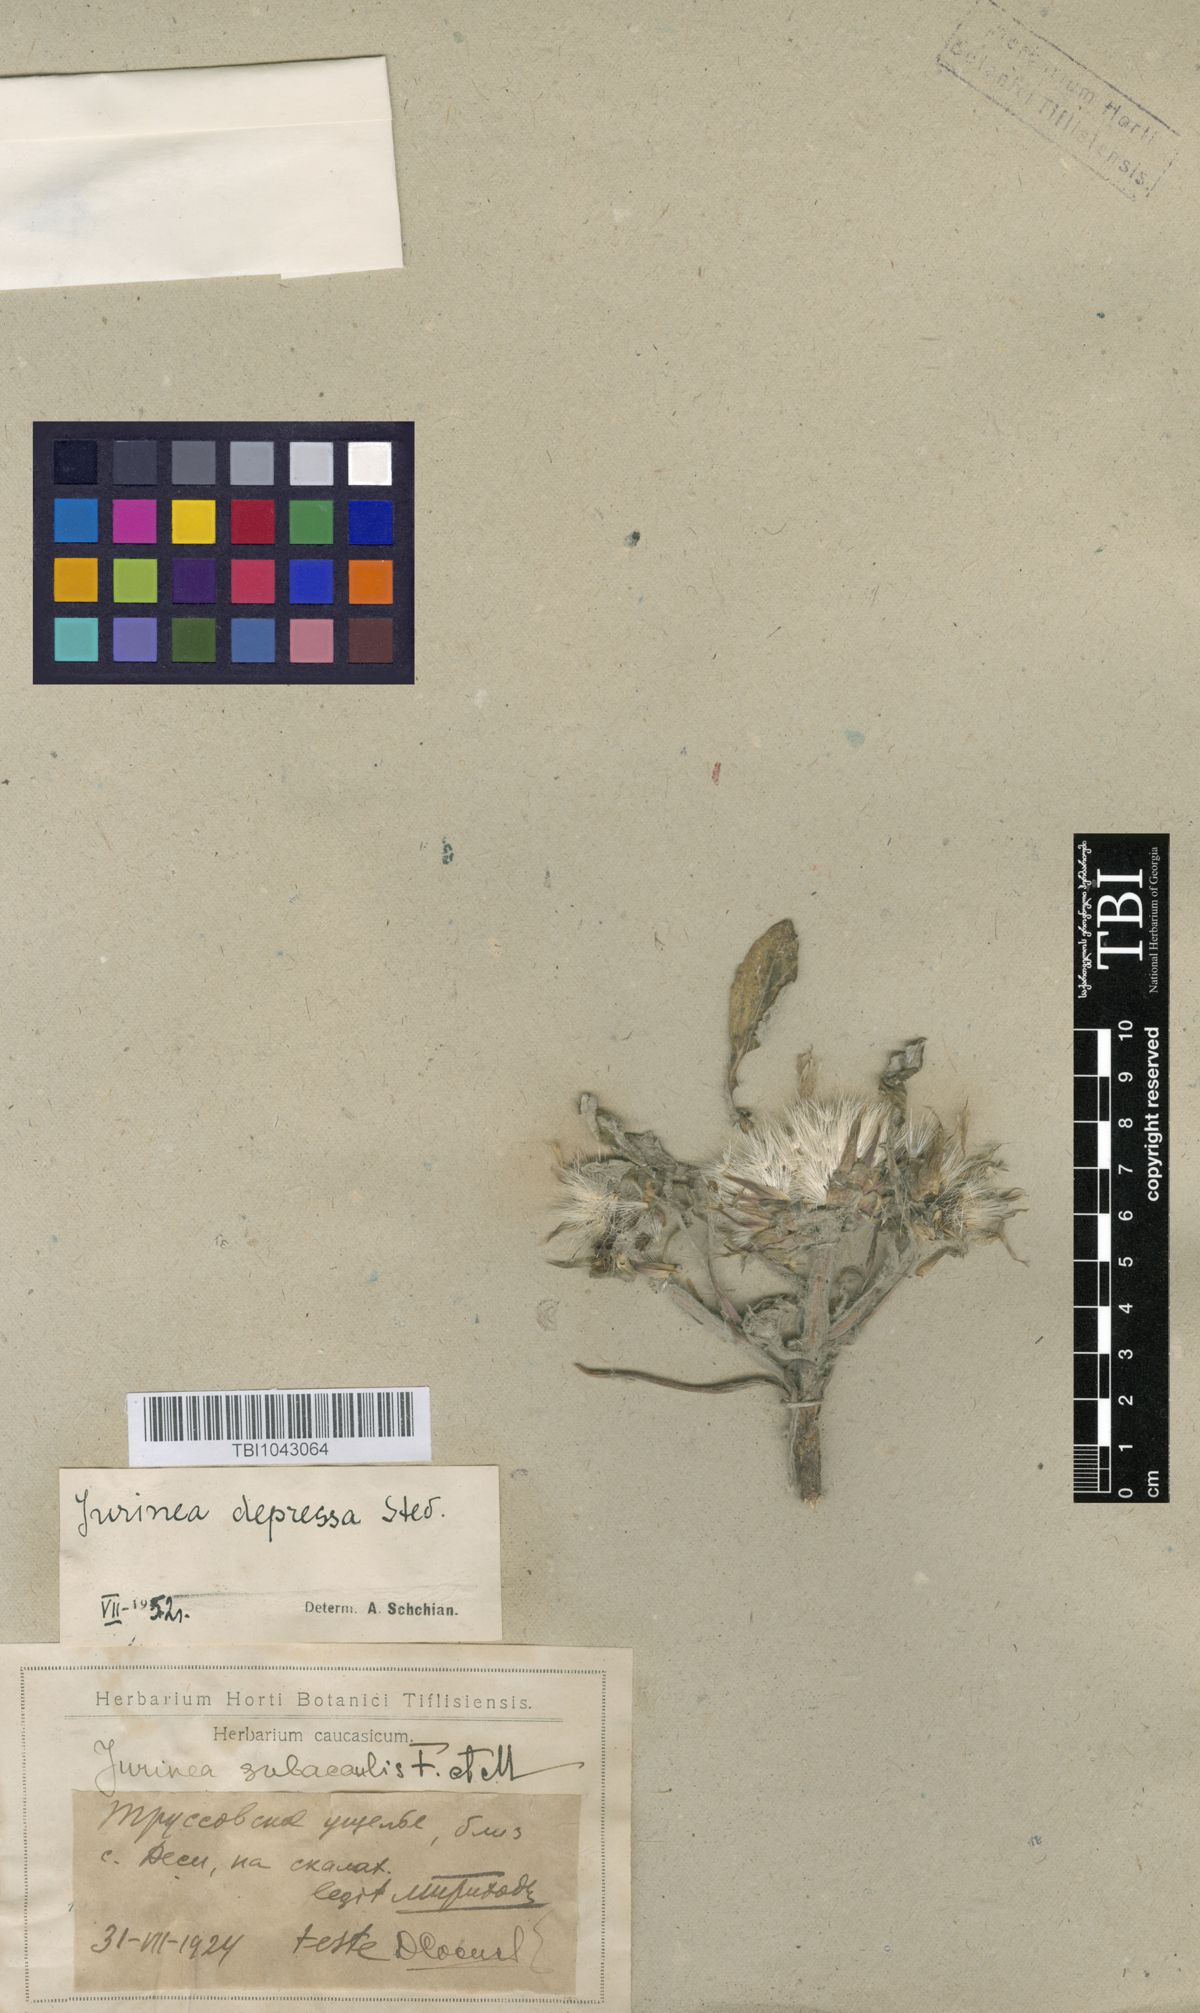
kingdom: Plantae
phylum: Tracheophyta
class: Magnoliopsida
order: Asterales
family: Asteraceae
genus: Jurinea
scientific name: Jurinea moschus
